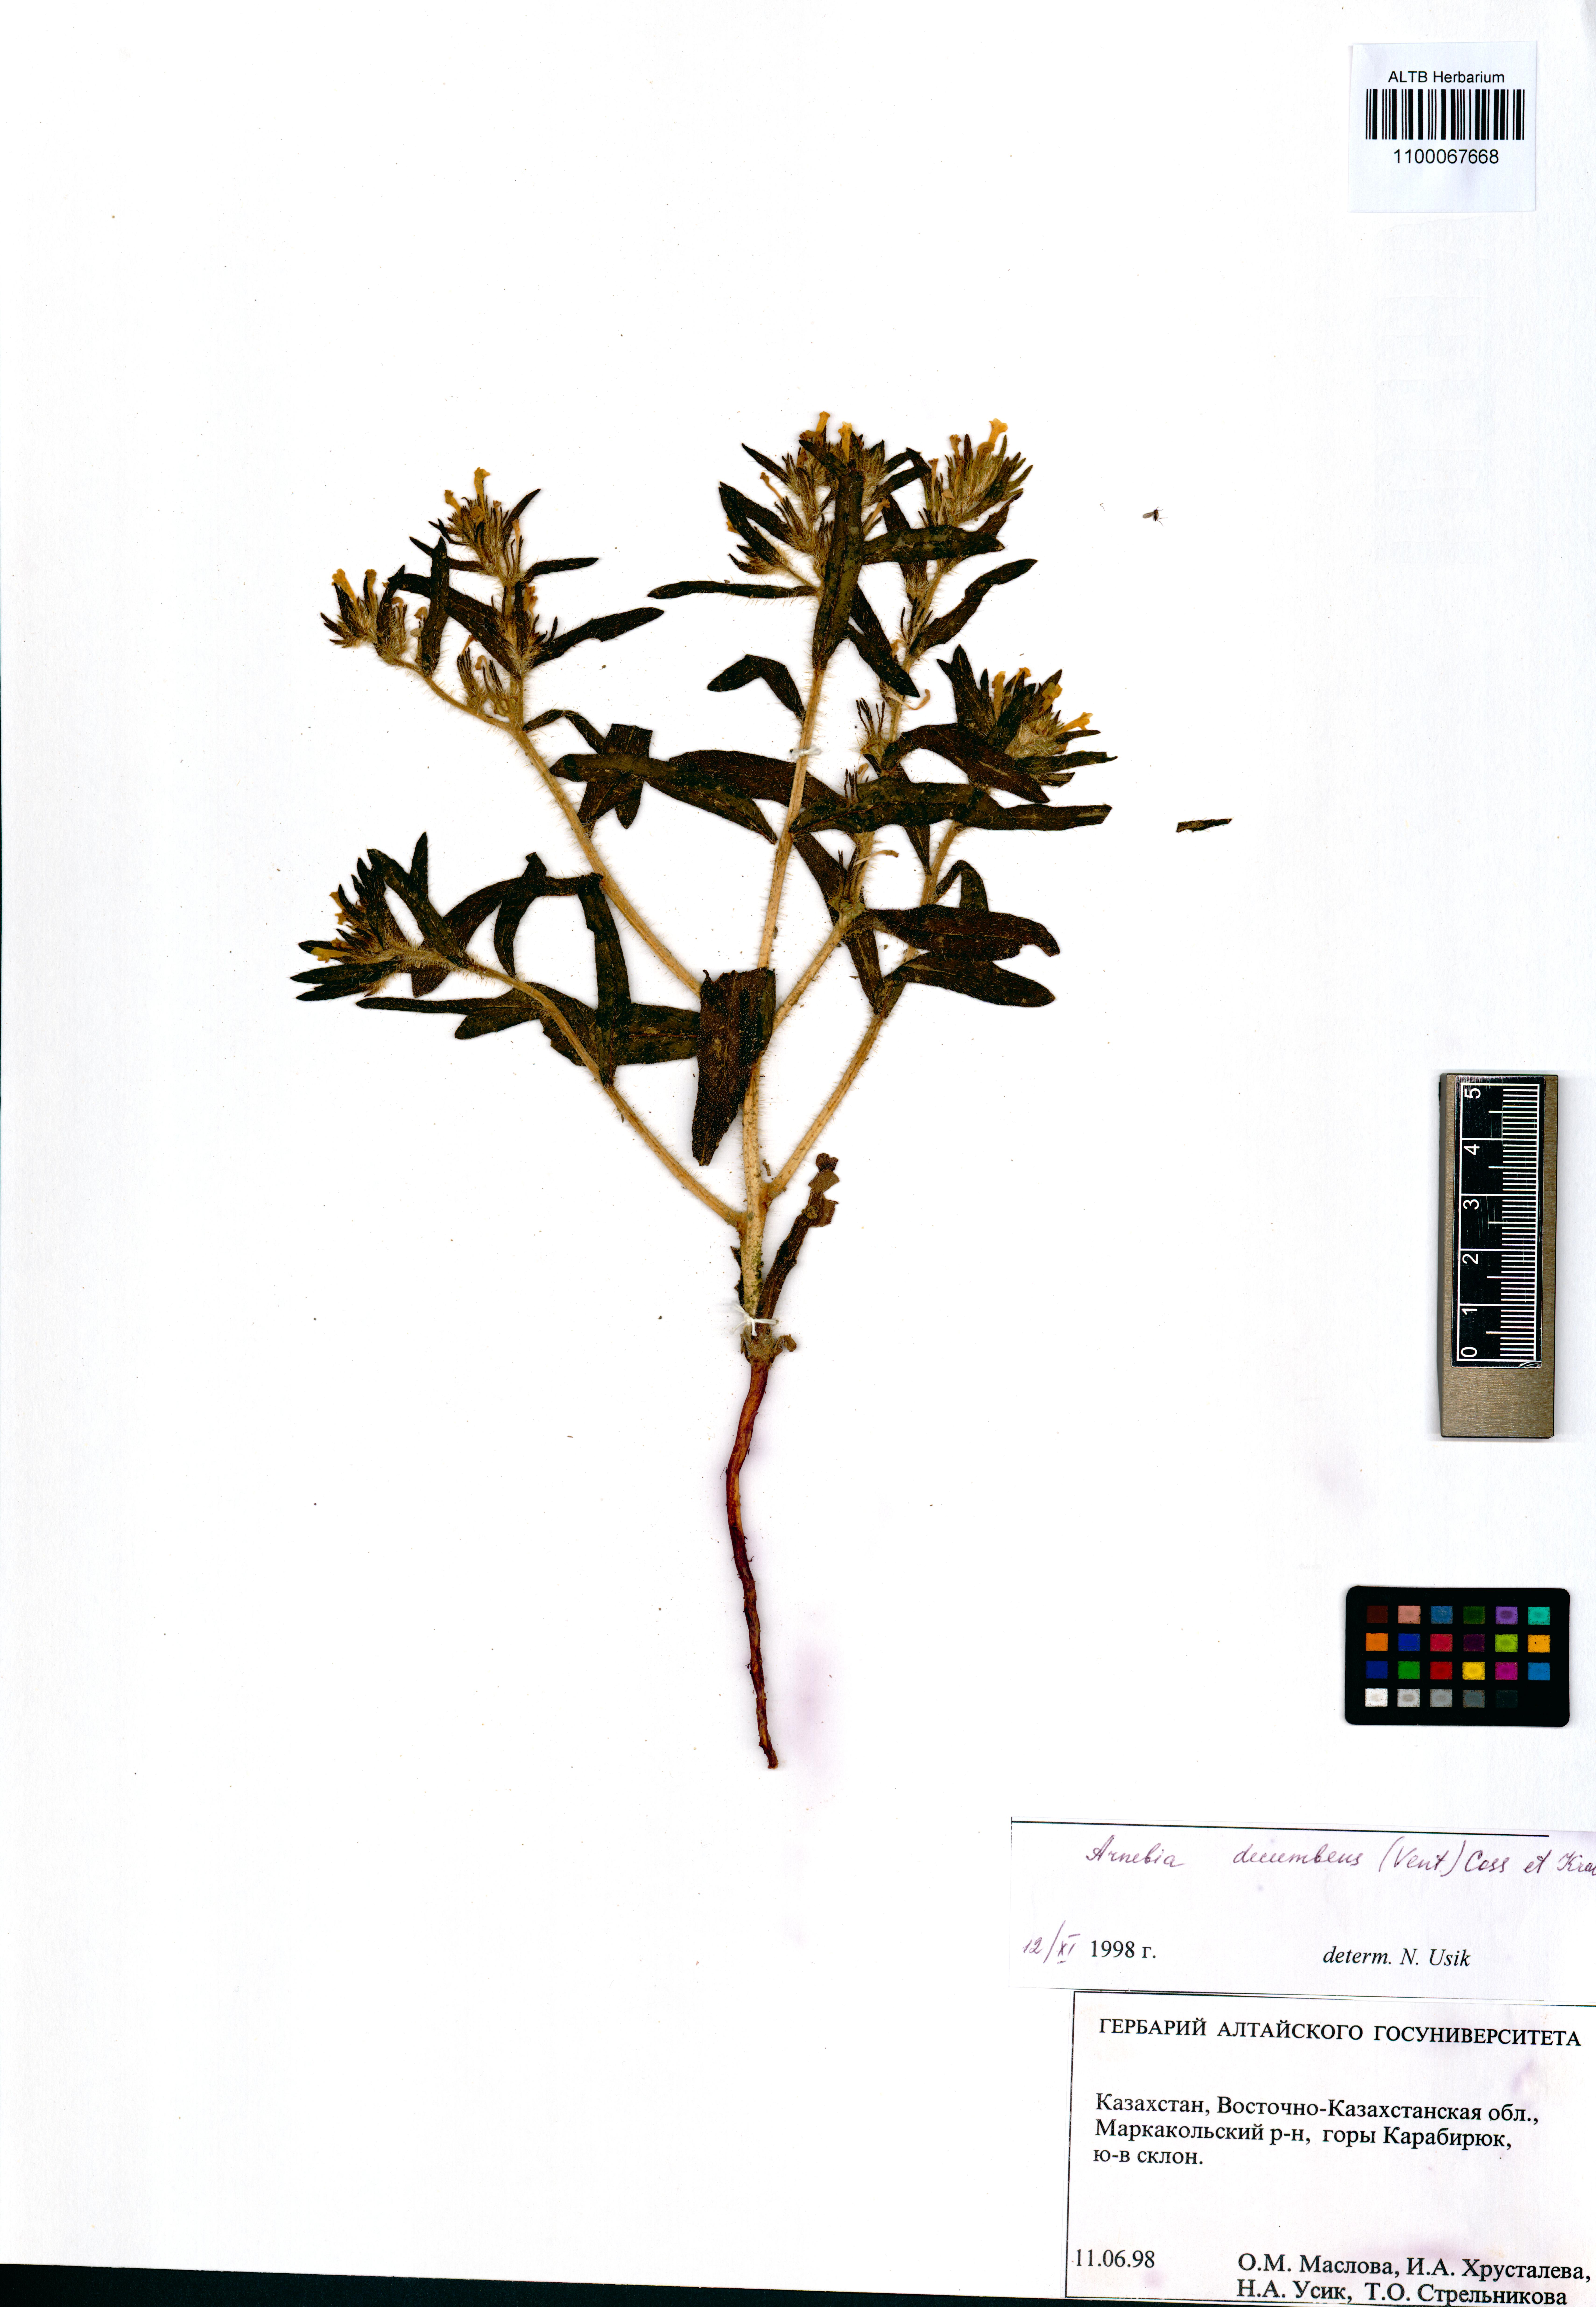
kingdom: Plantae
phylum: Tracheophyta
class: Magnoliopsida
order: Boraginales
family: Boraginaceae
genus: Arnebia
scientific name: Arnebia decumbens
